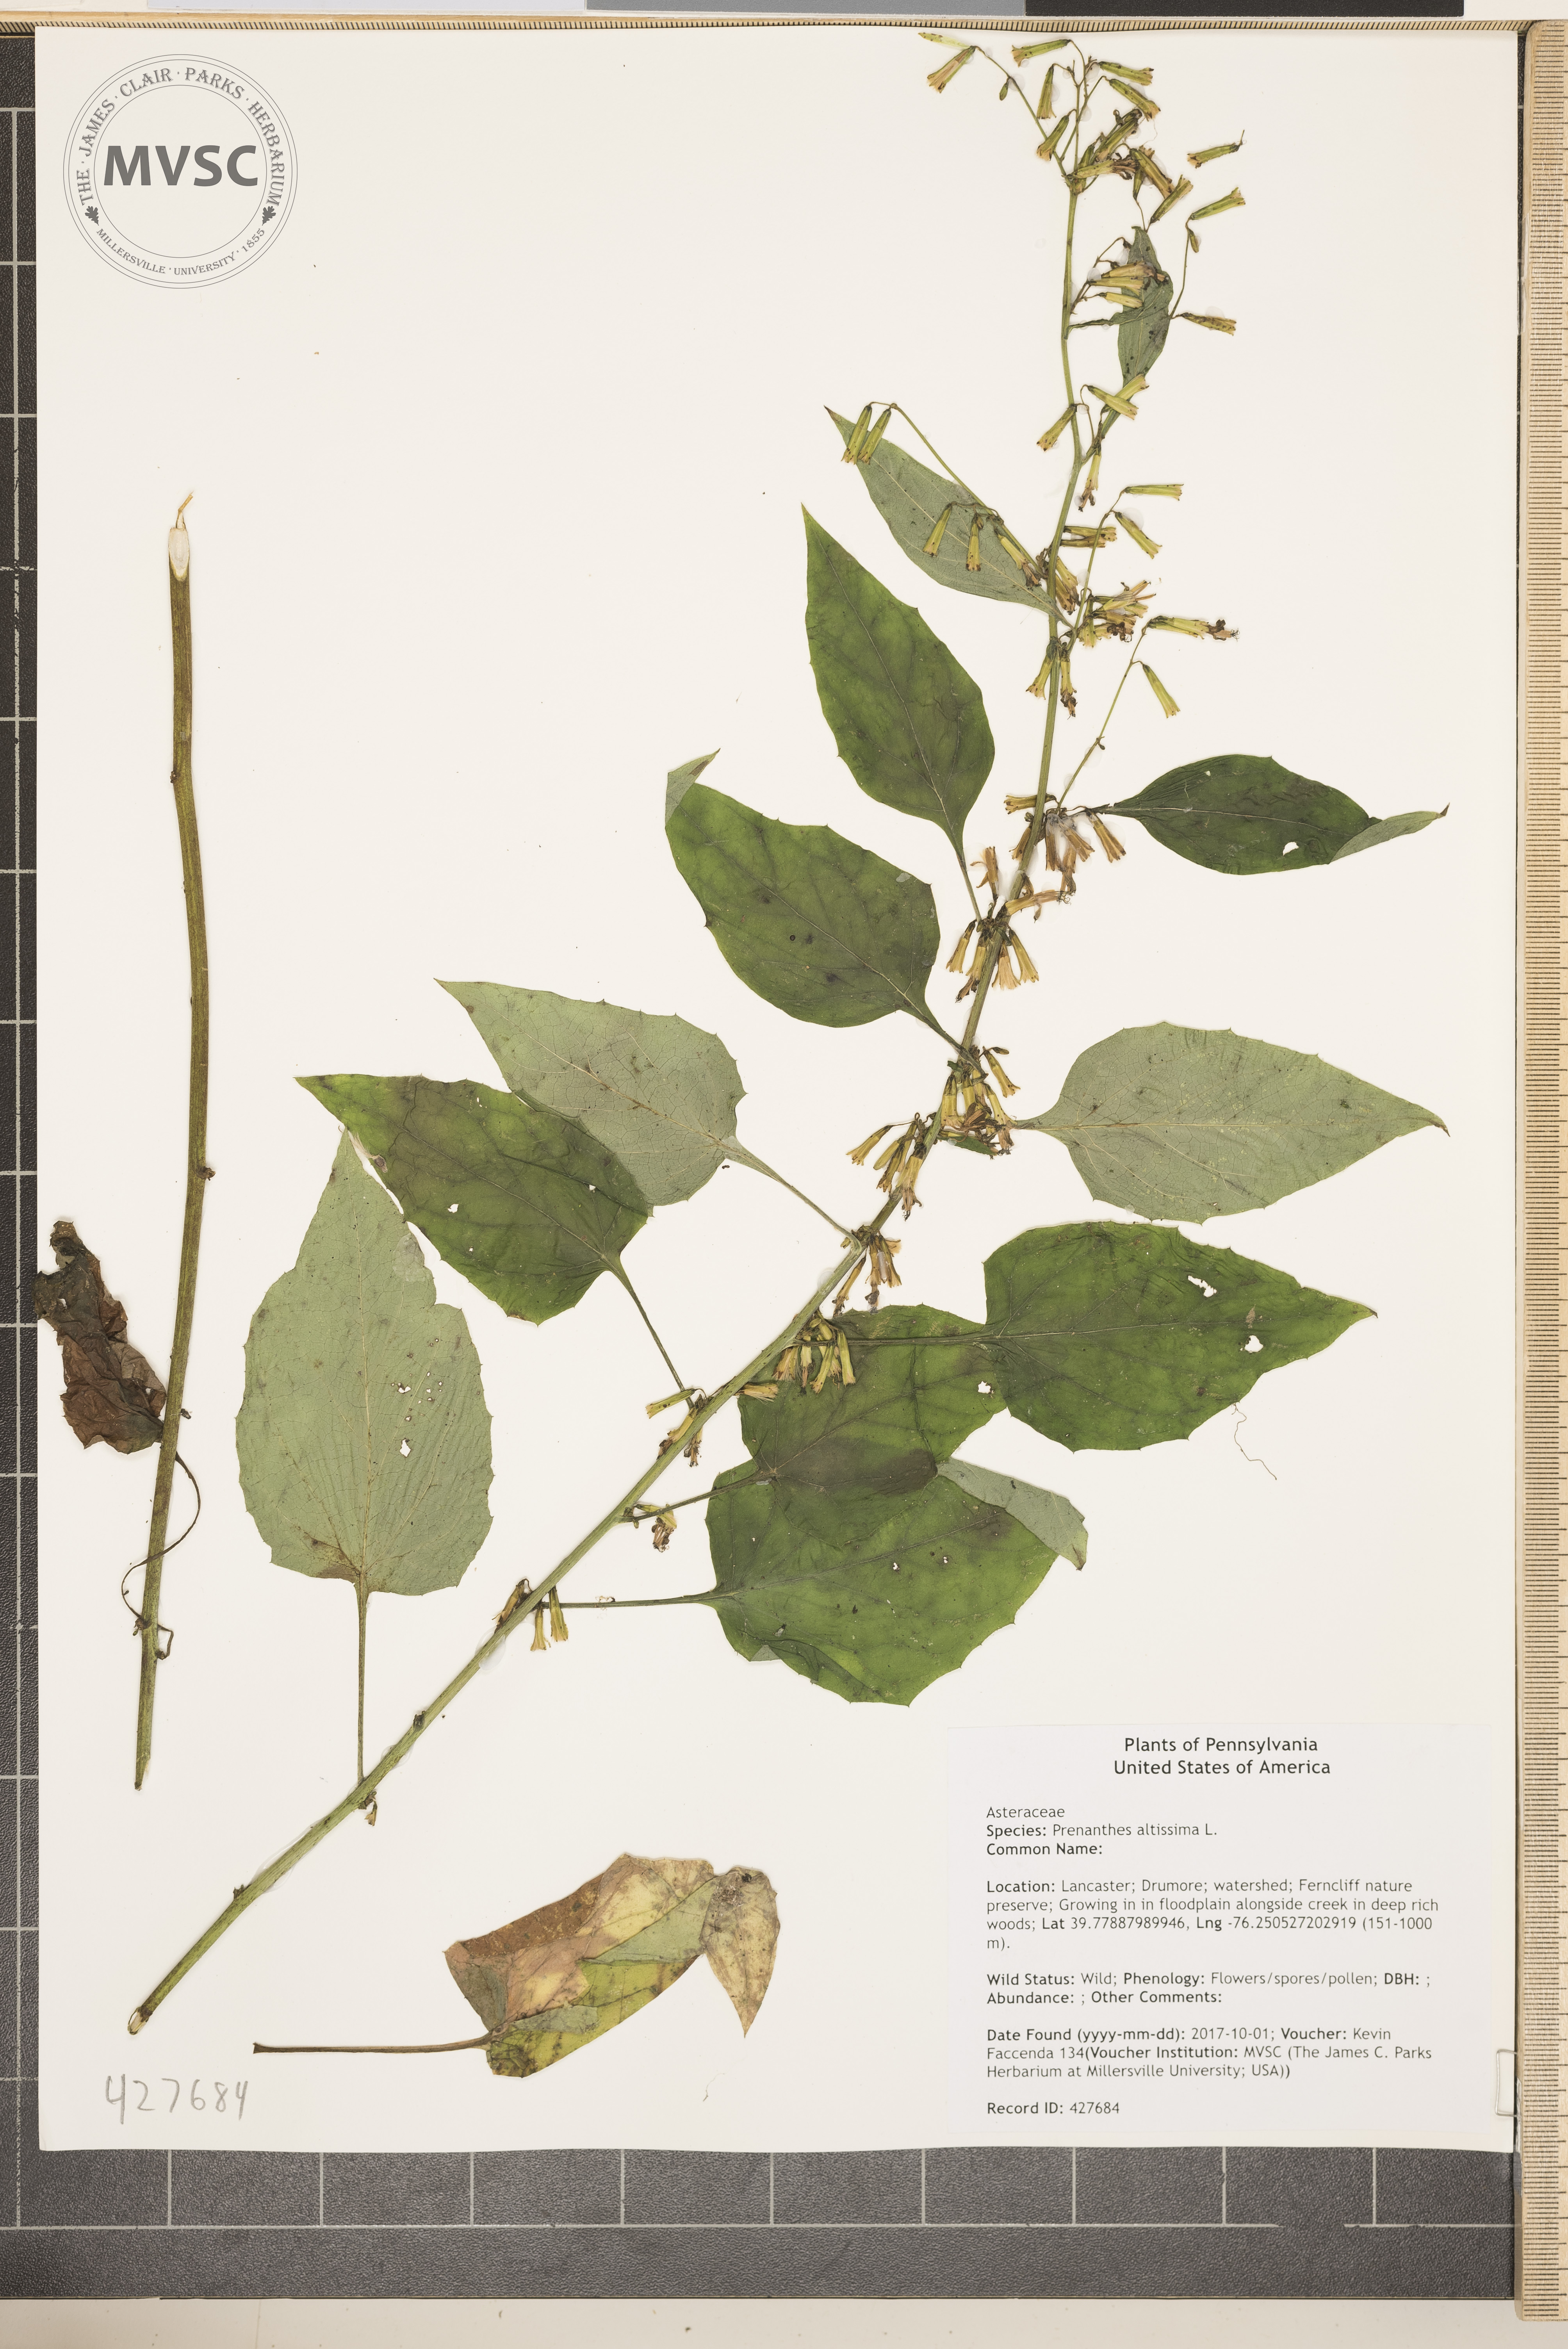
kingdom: Plantae
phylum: Tracheophyta
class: Magnoliopsida
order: Asterales
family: Asteraceae
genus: Nabalus
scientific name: Nabalus altissima
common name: Tall rattlesnakeroot
